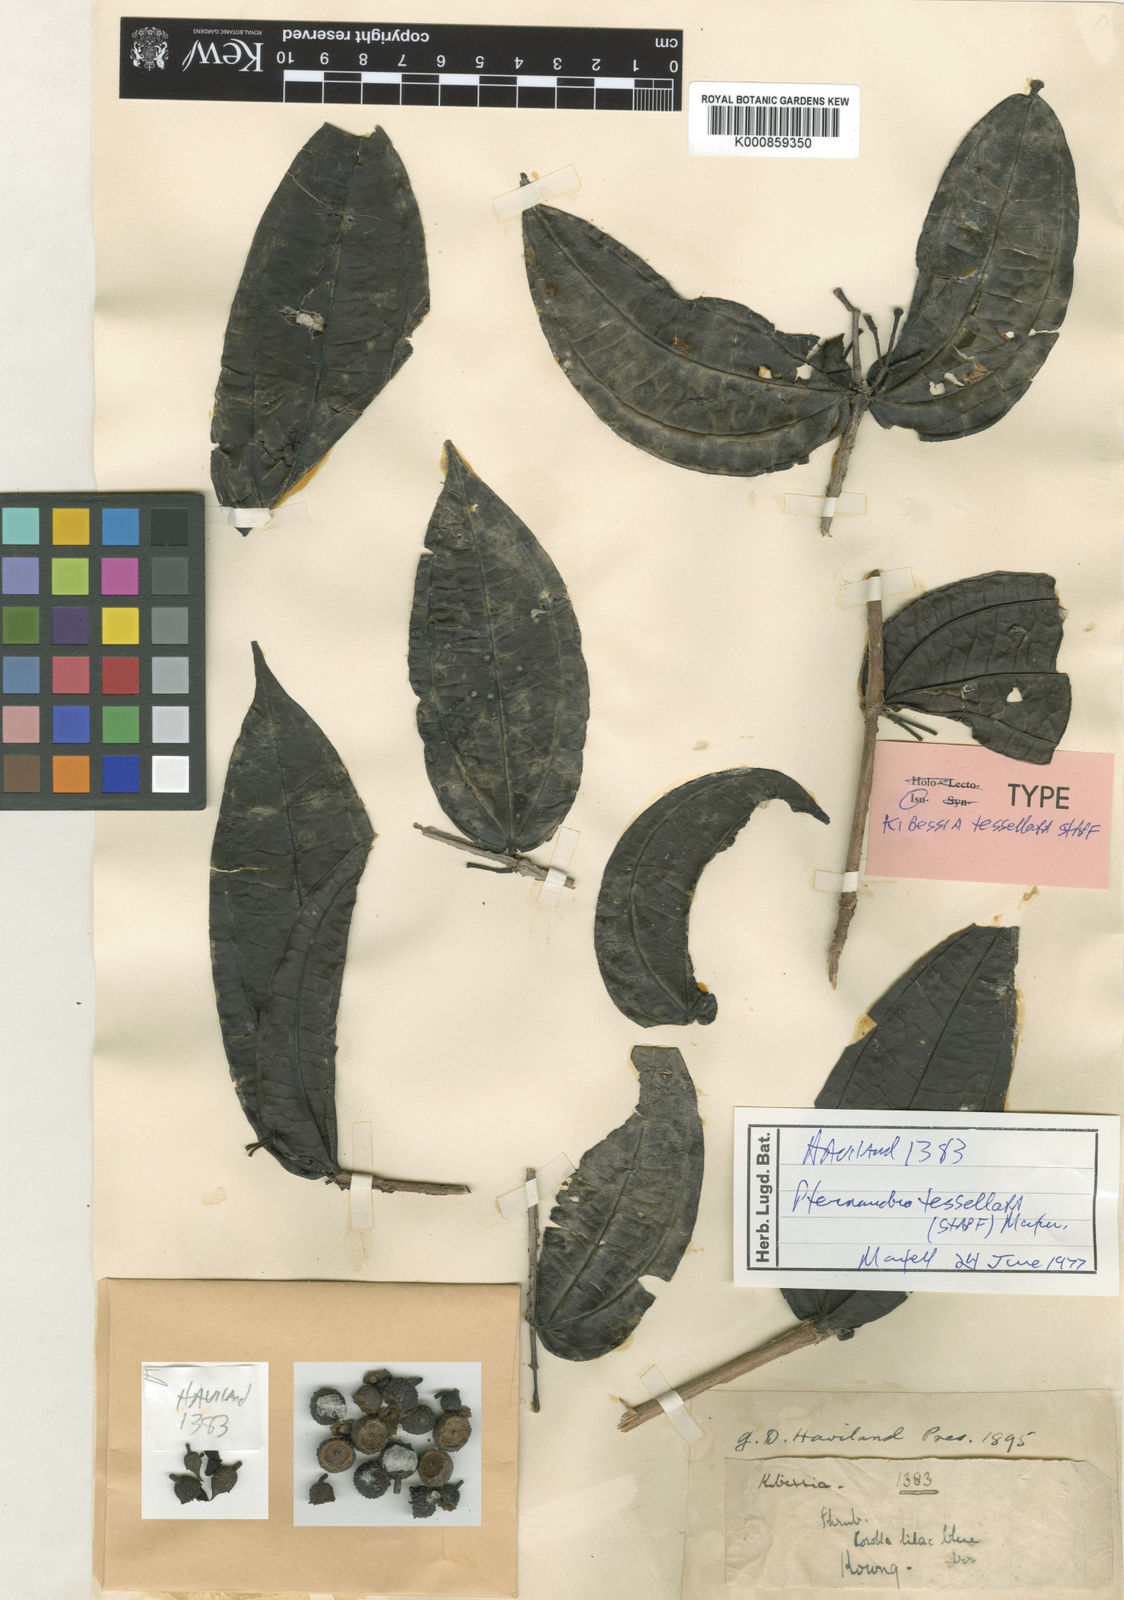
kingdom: Plantae
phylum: Tracheophyta
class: Magnoliopsida
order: Myrtales
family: Melastomataceae
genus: Pternandra
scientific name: Pternandra
